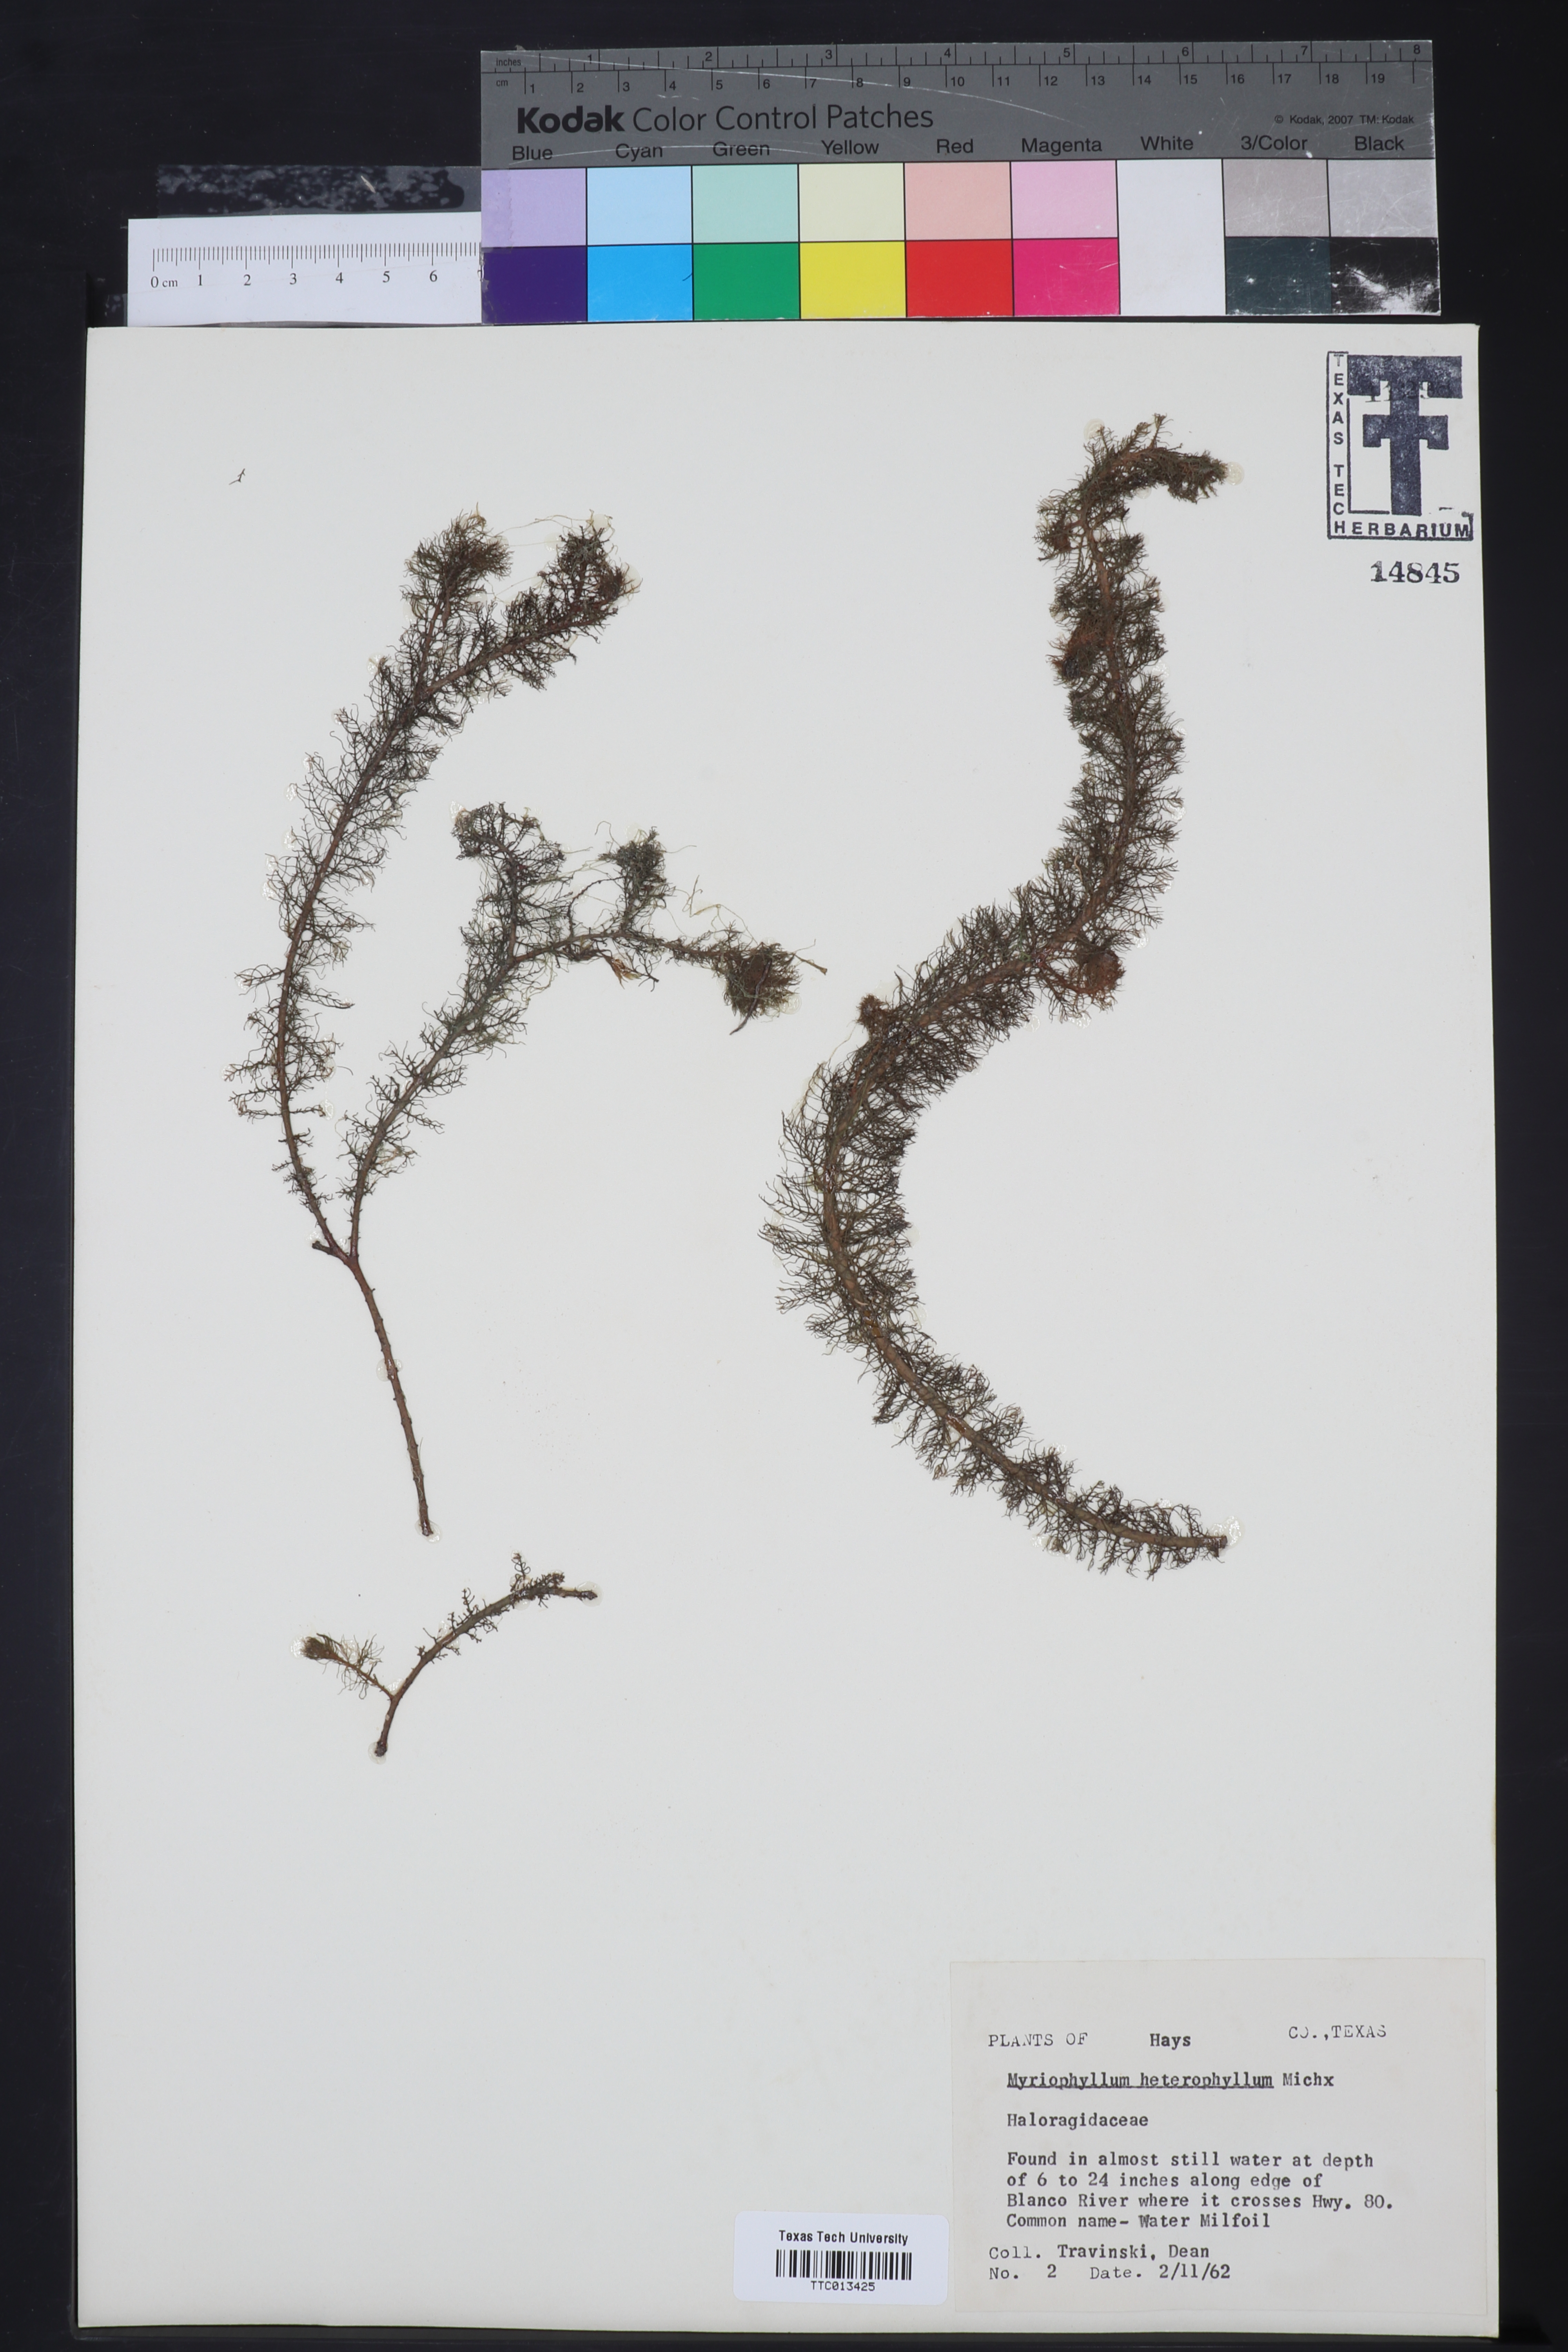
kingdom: Plantae
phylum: Tracheophyta
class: Magnoliopsida
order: Saxifragales
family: Haloragaceae
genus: Myriophyllum
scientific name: Myriophyllum heterophyllum
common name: Variable watermilfoil
